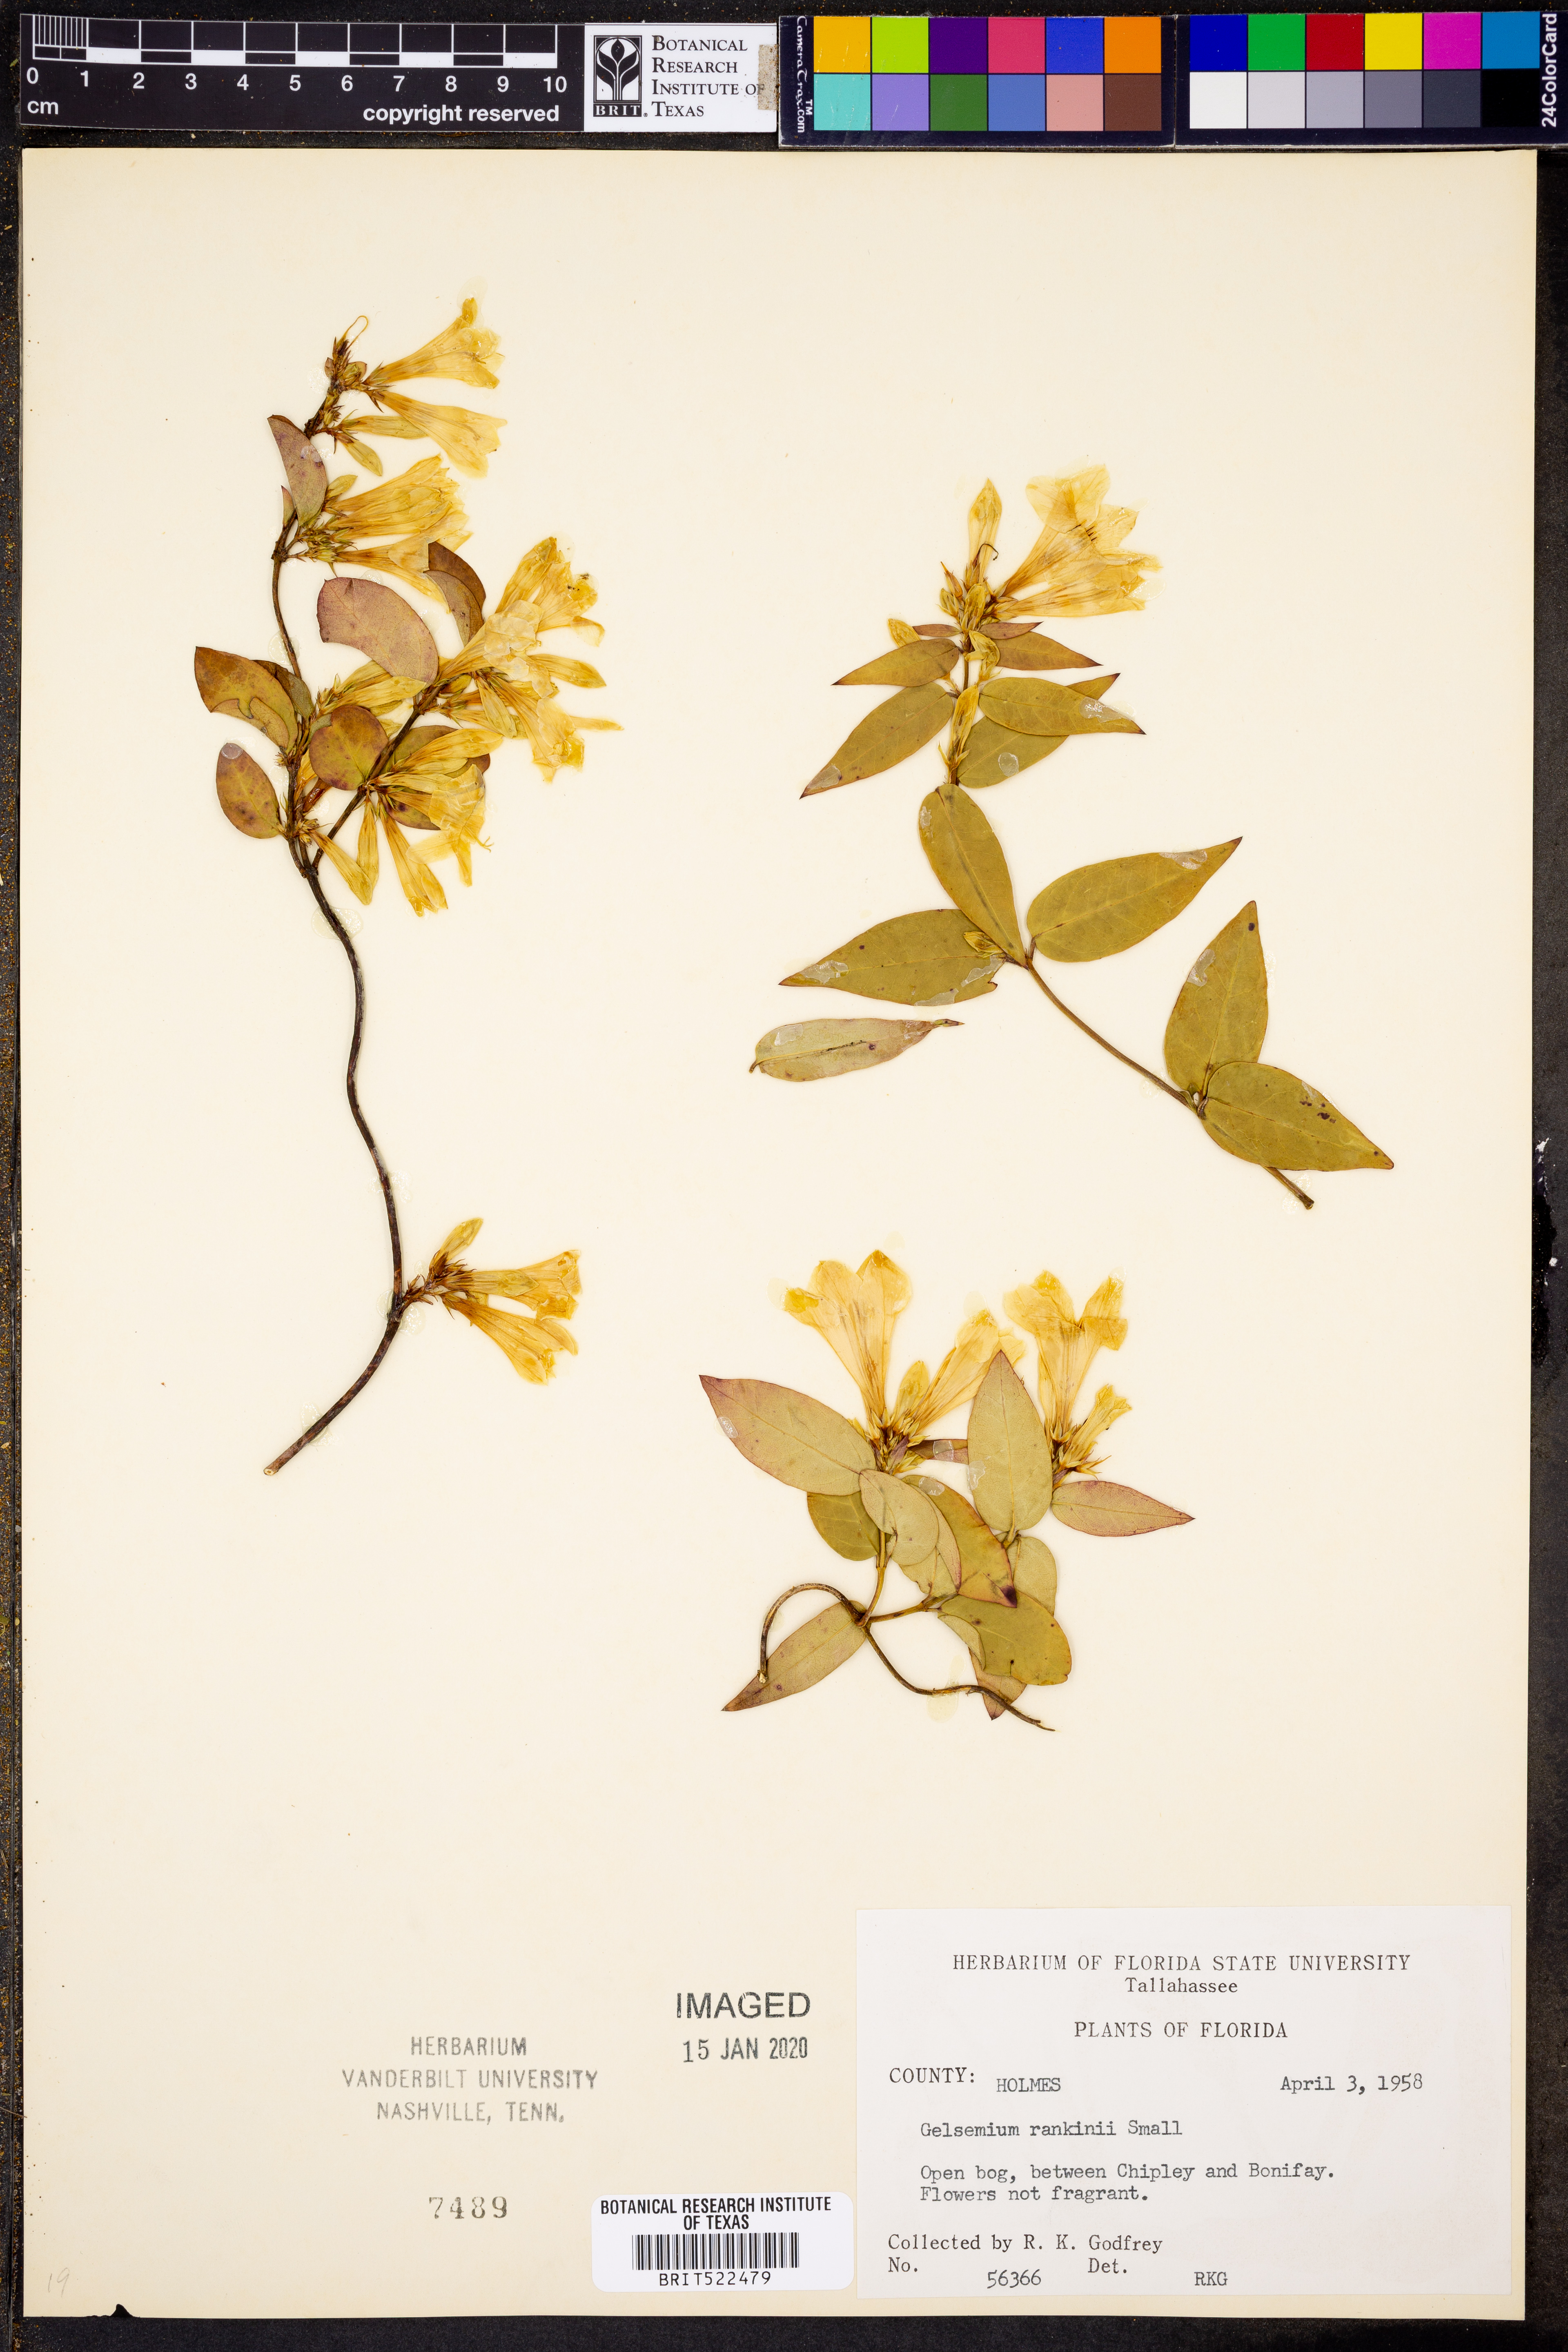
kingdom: Plantae
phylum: Tracheophyta
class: Magnoliopsida
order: Gentianales
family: Gelsemiaceae
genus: Gelsemium
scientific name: Gelsemium rankinii
